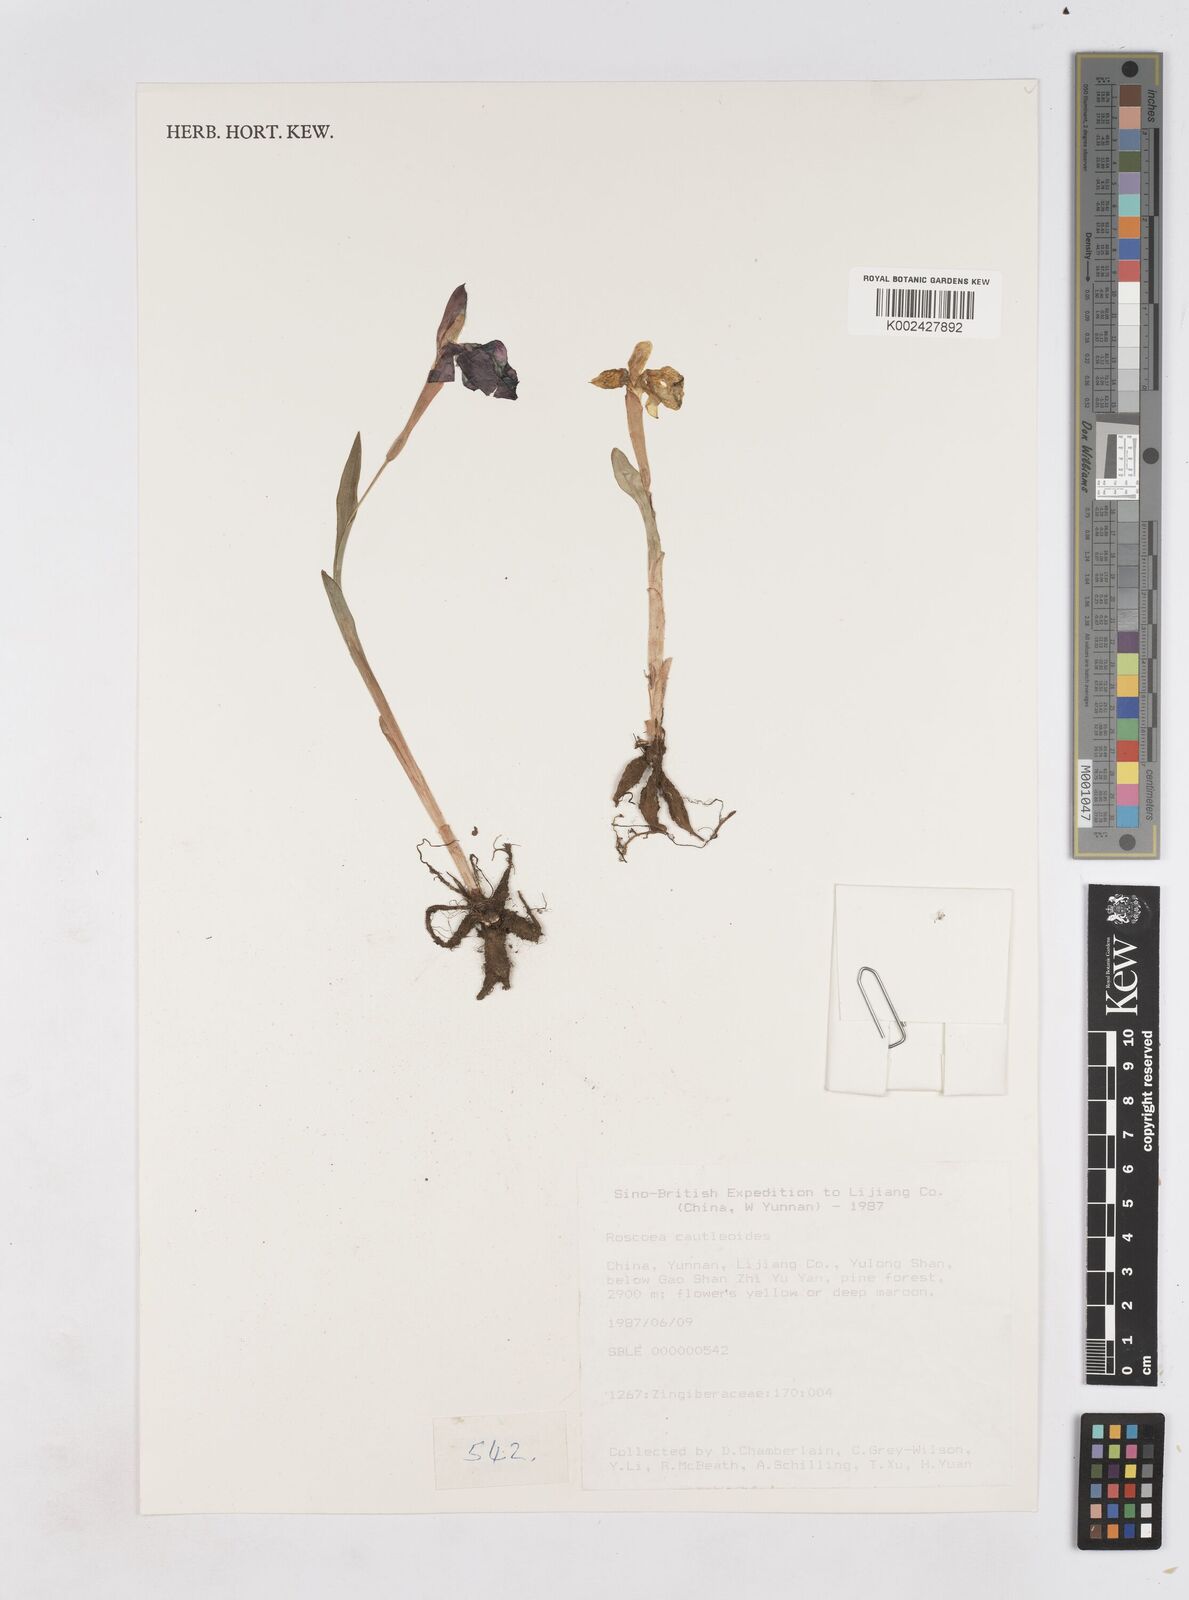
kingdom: Plantae
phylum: Tracheophyta
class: Liliopsida
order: Zingiberales
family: Zingiberaceae
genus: Roscoea
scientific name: Roscoea cautleyoides
